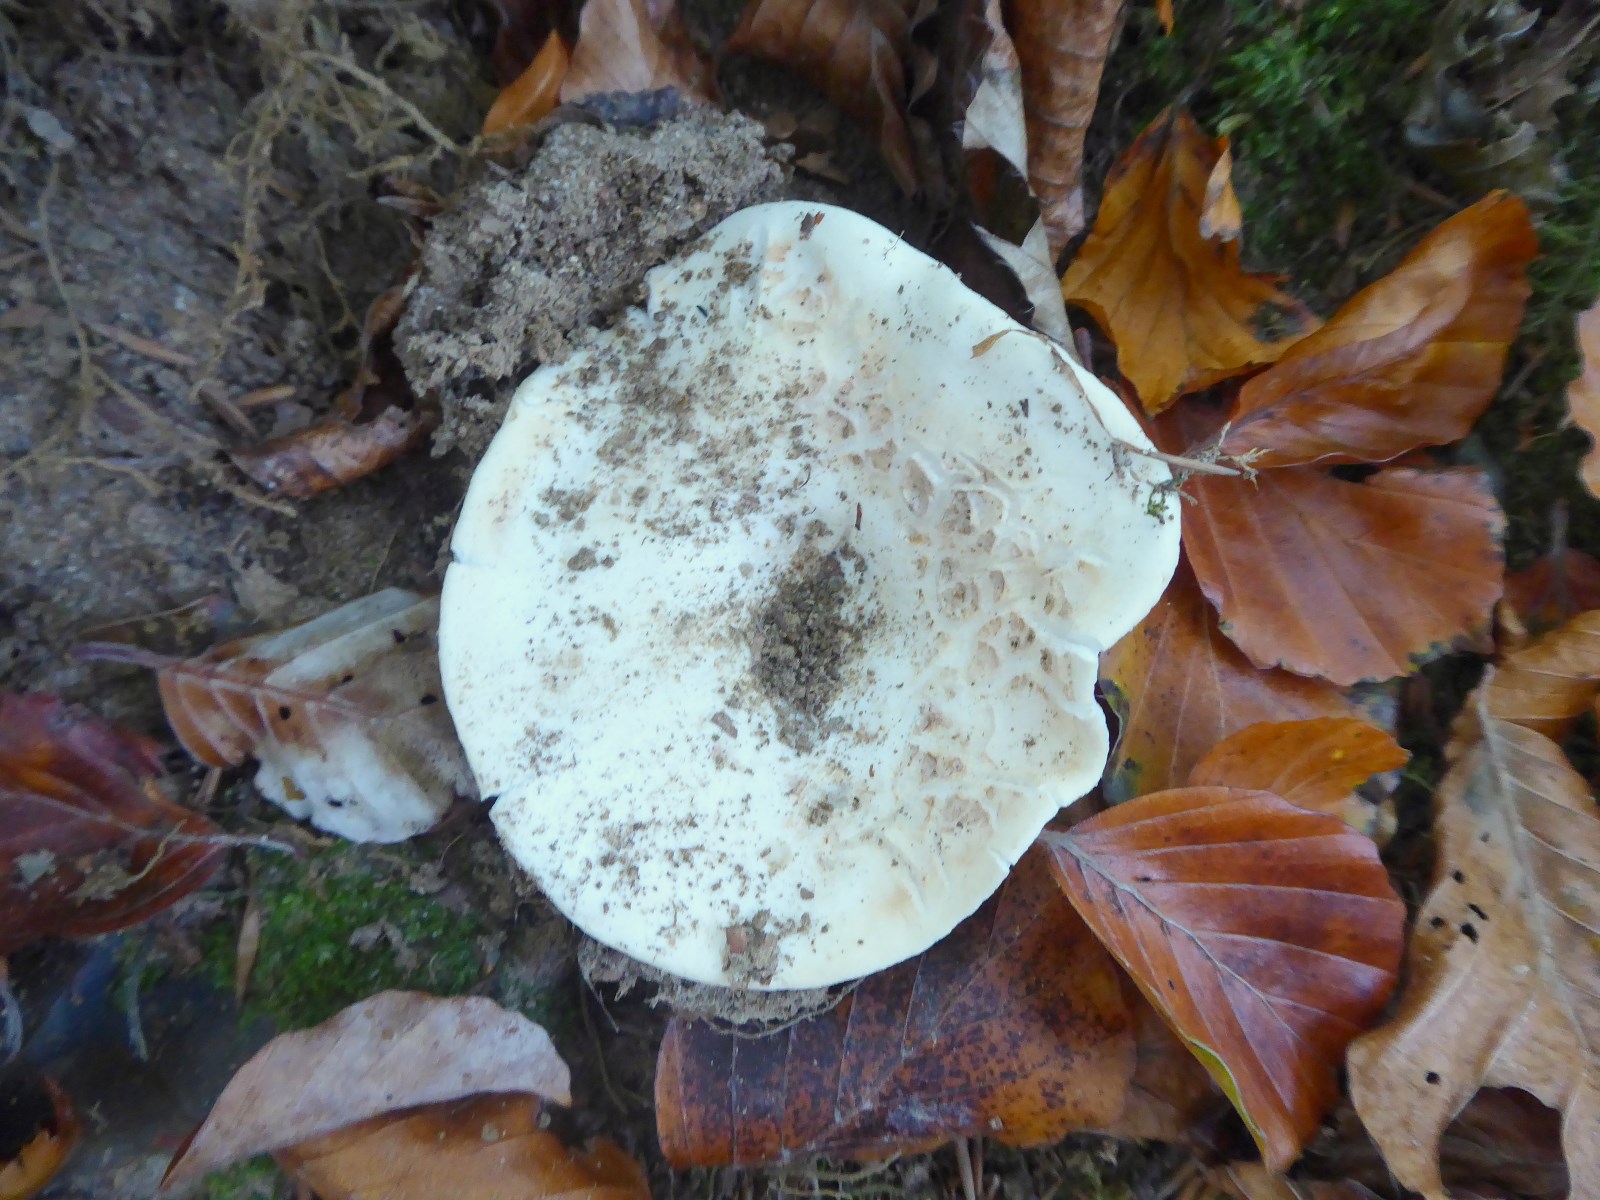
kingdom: Fungi
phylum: Basidiomycota
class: Agaricomycetes
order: Russulales
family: Russulaceae
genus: Russula
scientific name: Russula chloroides
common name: grønhalset tragt-skørhat
